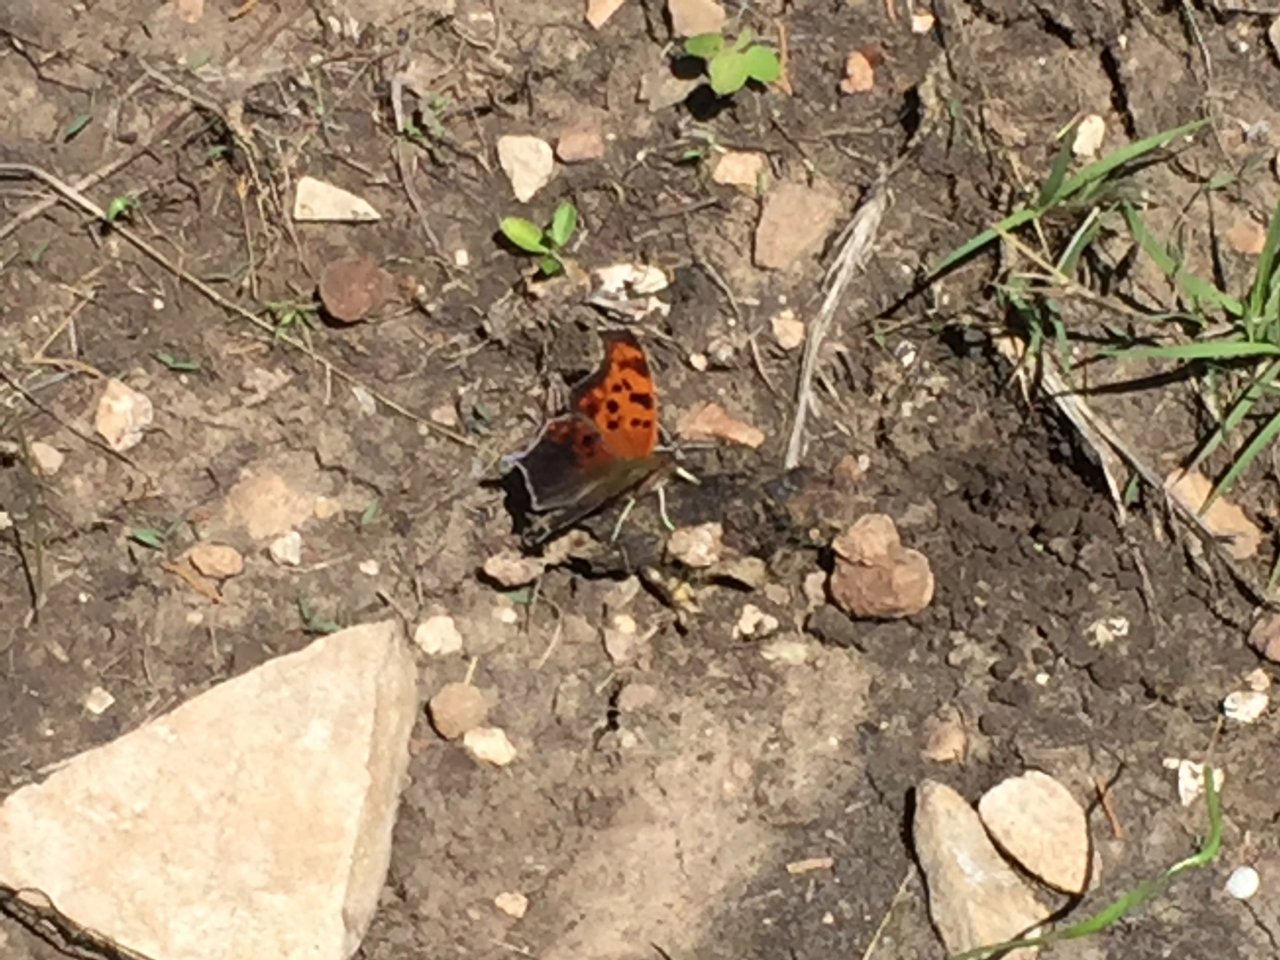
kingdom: Animalia
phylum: Arthropoda
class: Insecta
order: Lepidoptera
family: Nymphalidae
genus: Polygonia
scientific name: Polygonia interrogationis
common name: Question Mark
